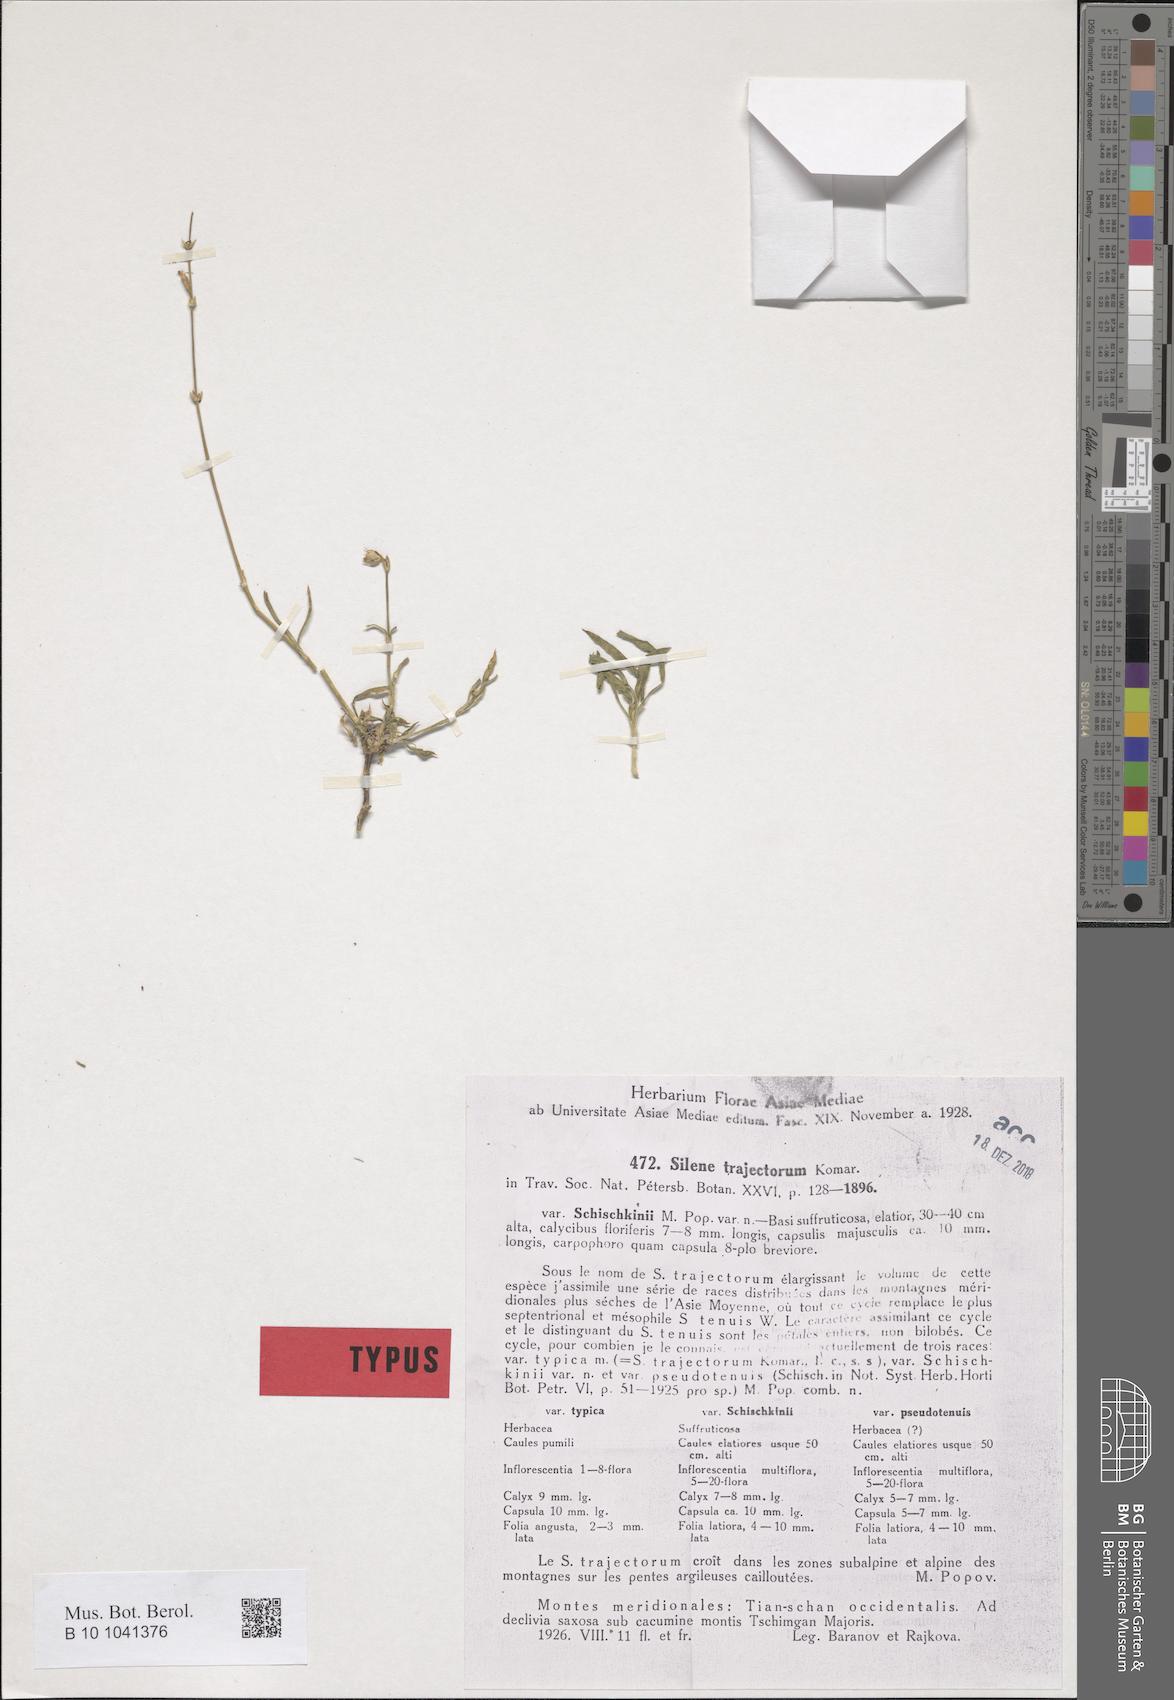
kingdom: Plantae
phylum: Tracheophyta
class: Magnoliopsida
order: Caryophyllales
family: Caryophyllaceae
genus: Silene
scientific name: Silene schischkinii
